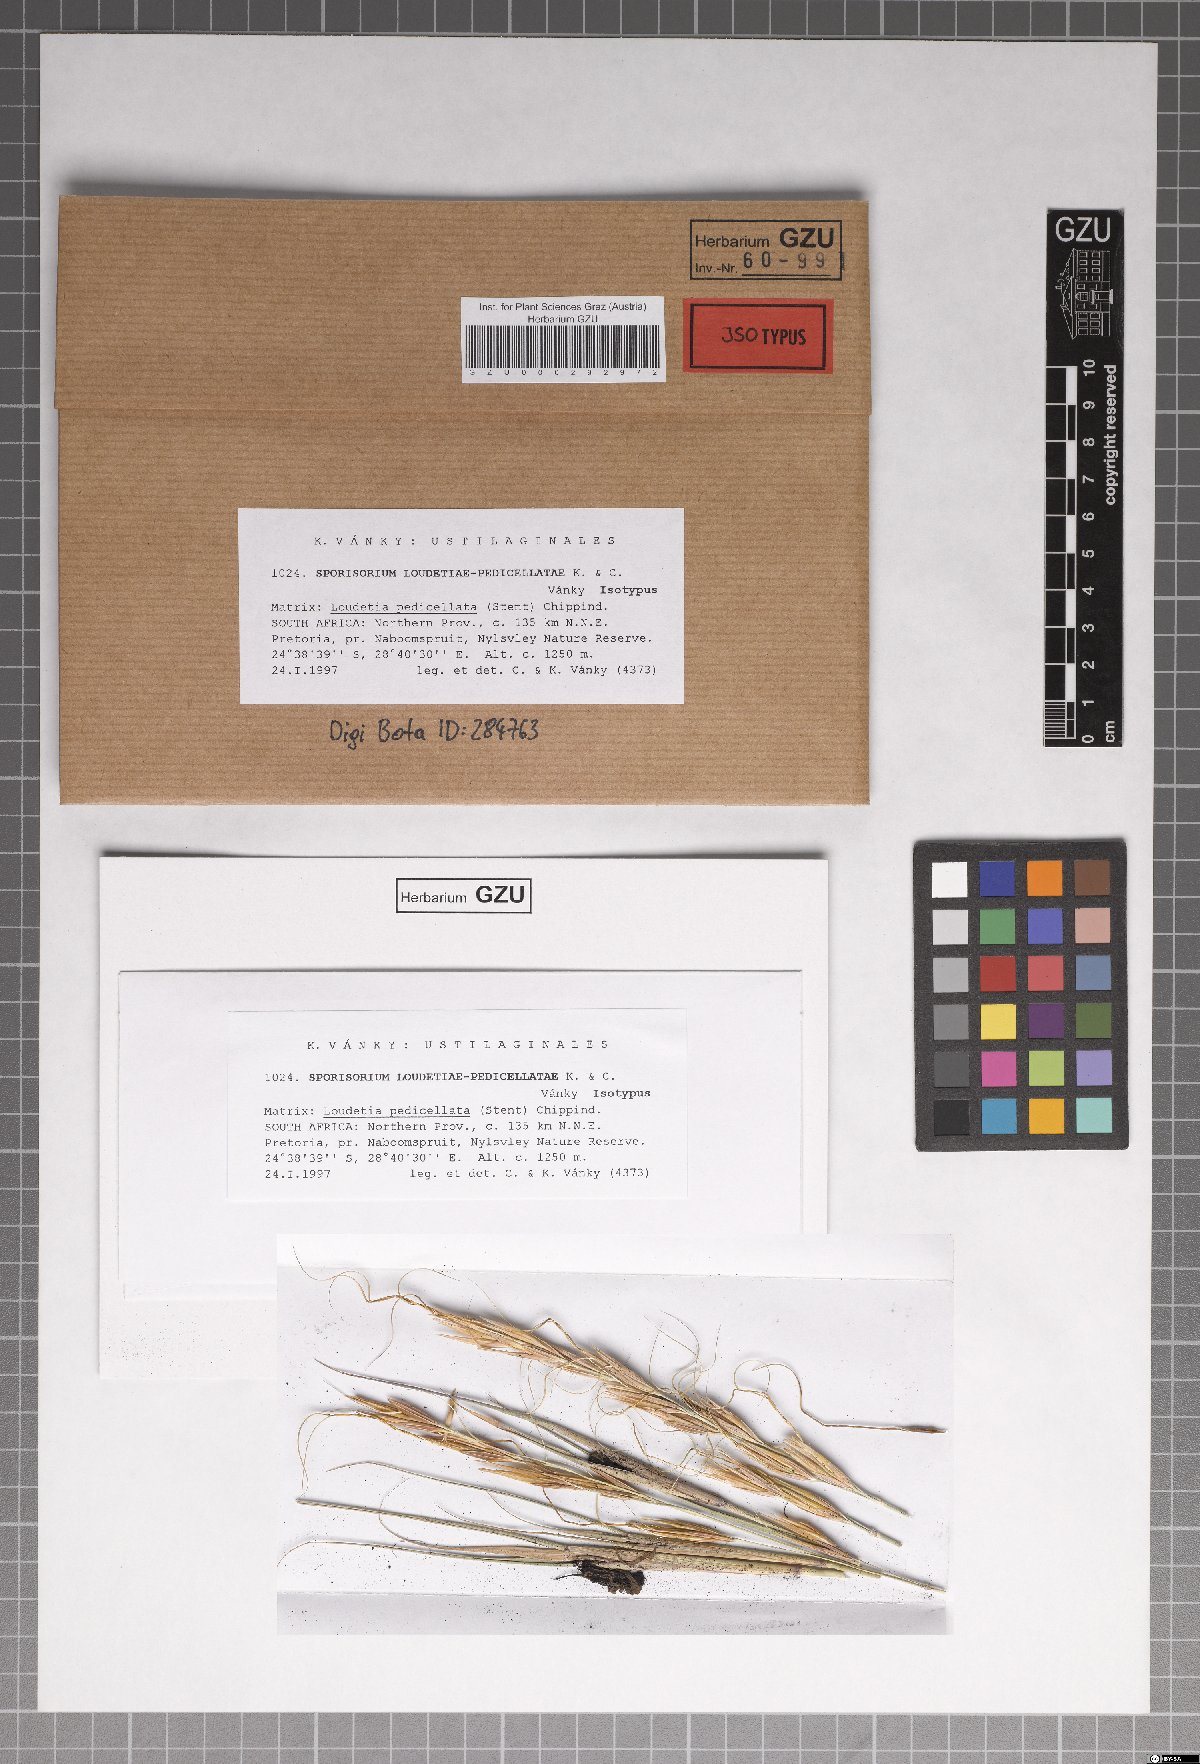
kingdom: Fungi
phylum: Basidiomycota
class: Ustilaginomycetes
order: Ustilaginales
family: Ustilaginaceae
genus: Anthracocystis
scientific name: Anthracocystis loudetiae-pedicellatae
